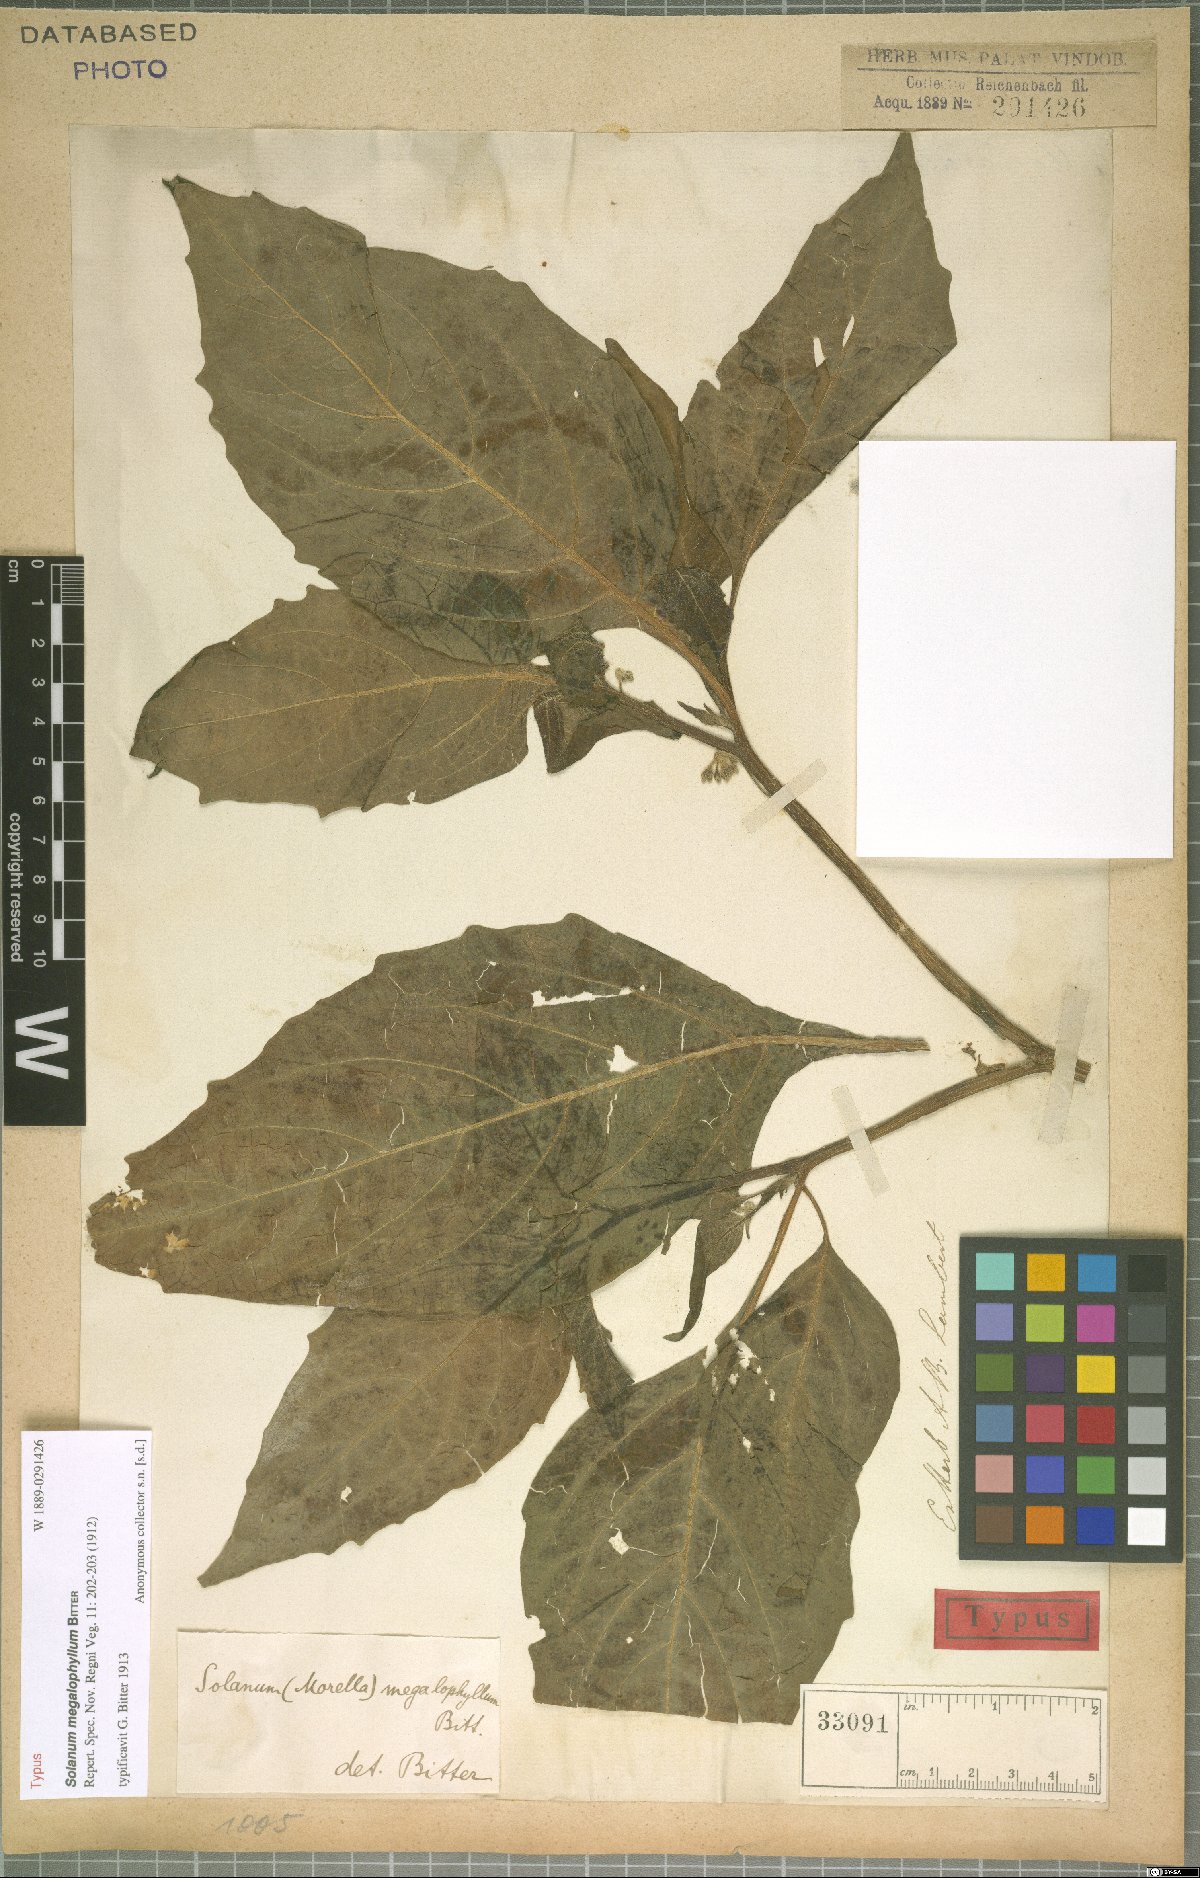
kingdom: Plantae
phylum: Tracheophyta
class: Magnoliopsida
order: Solanales
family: Solanaceae
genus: Solanum
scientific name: Solanum macrotonum
